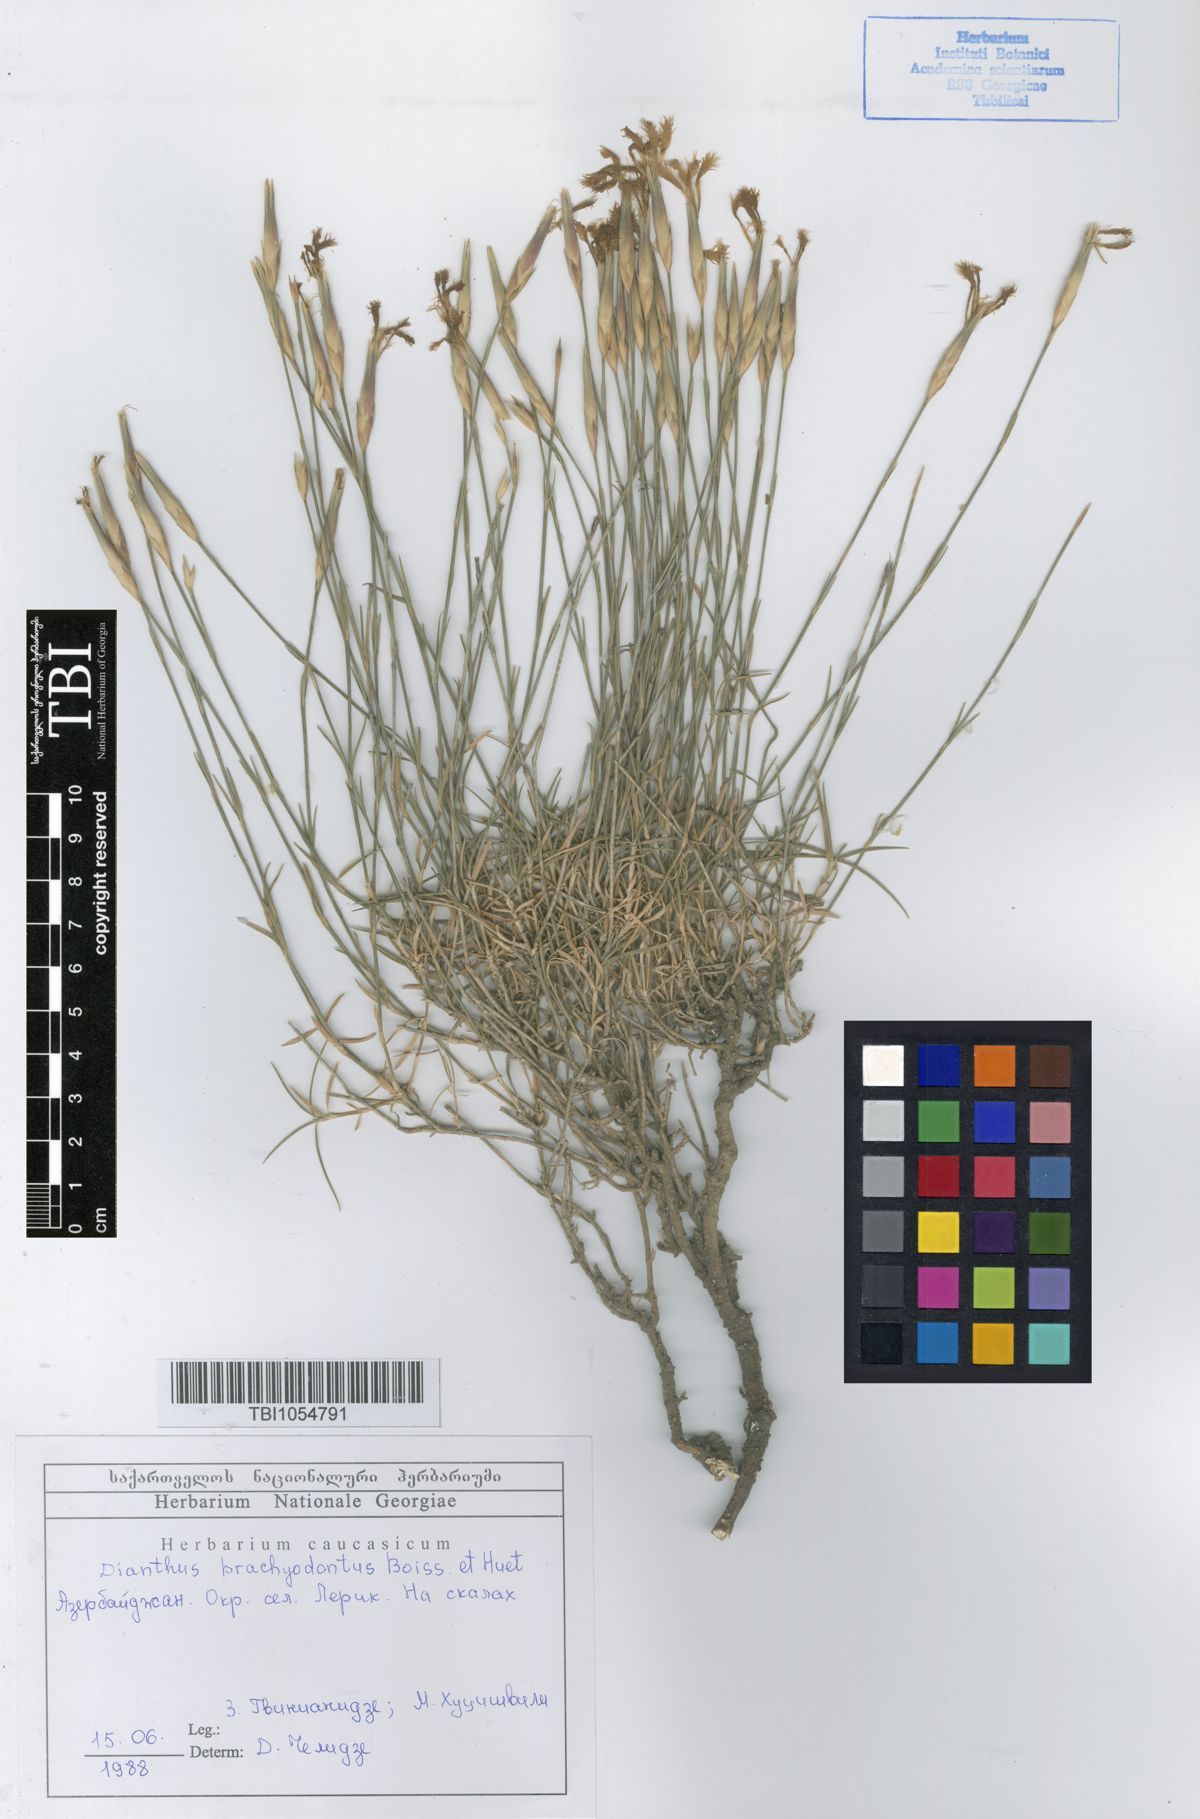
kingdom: Plantae
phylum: Tracheophyta
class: Magnoliopsida
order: Caryophyllales
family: Caryophyllaceae
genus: Dianthus
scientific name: Dianthus
